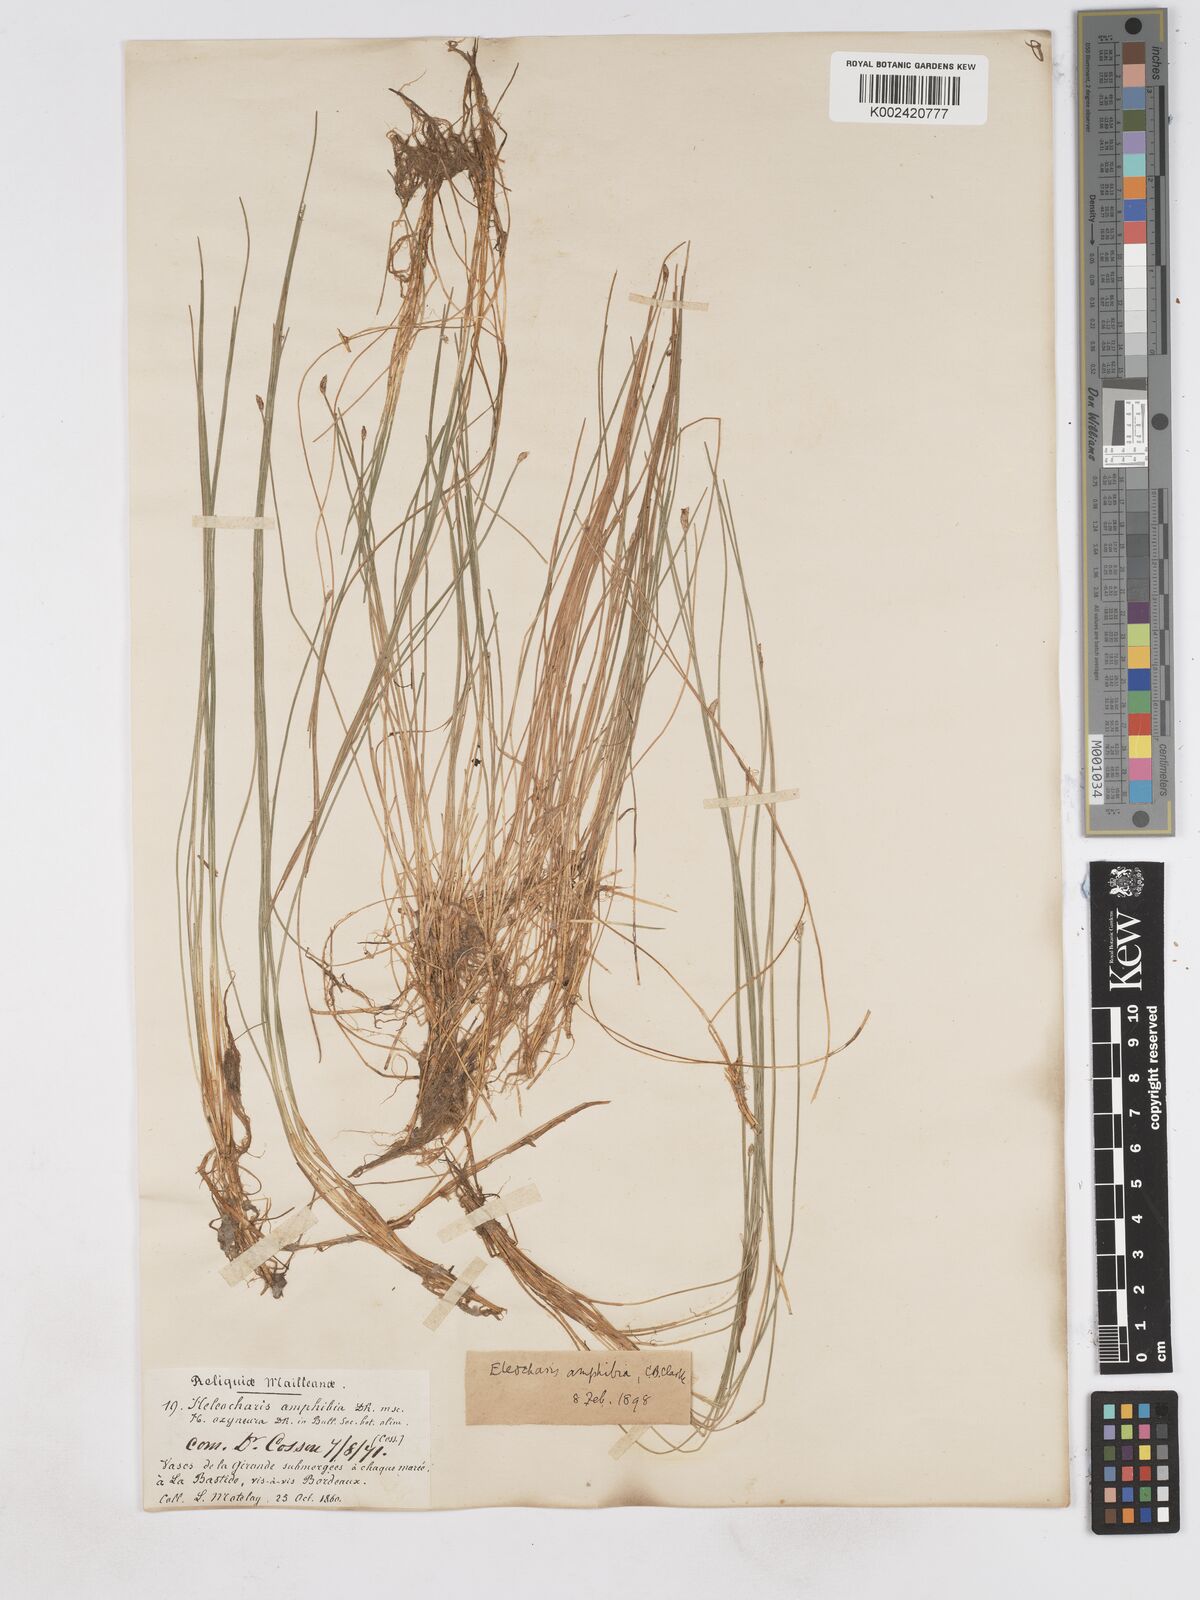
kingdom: Plantae
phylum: Tracheophyta
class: Liliopsida
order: Poales
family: Cyperaceae
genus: Eleocharis
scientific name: Eleocharis bonariensis
